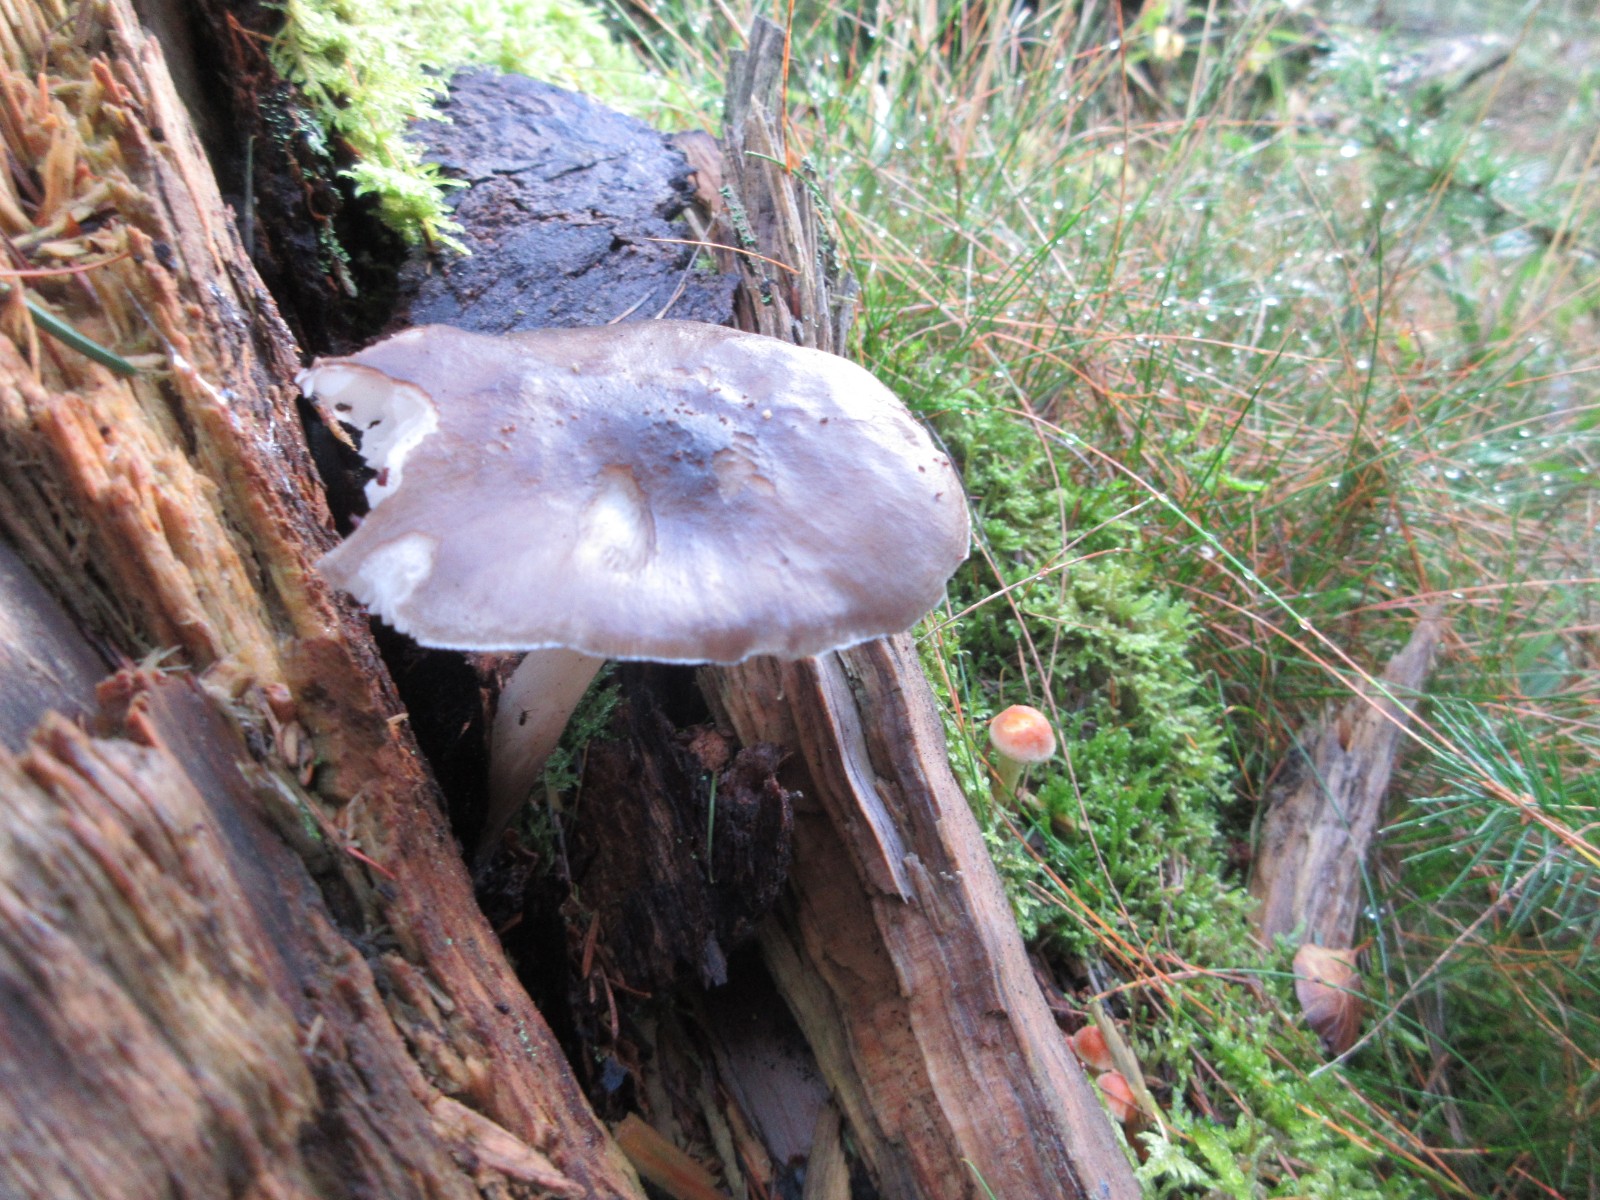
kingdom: Fungi
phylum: Basidiomycota
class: Agaricomycetes
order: Agaricales
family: Pluteaceae
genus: Pluteus
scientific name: Pluteus cervinus
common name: sodfarvet skærmhat
